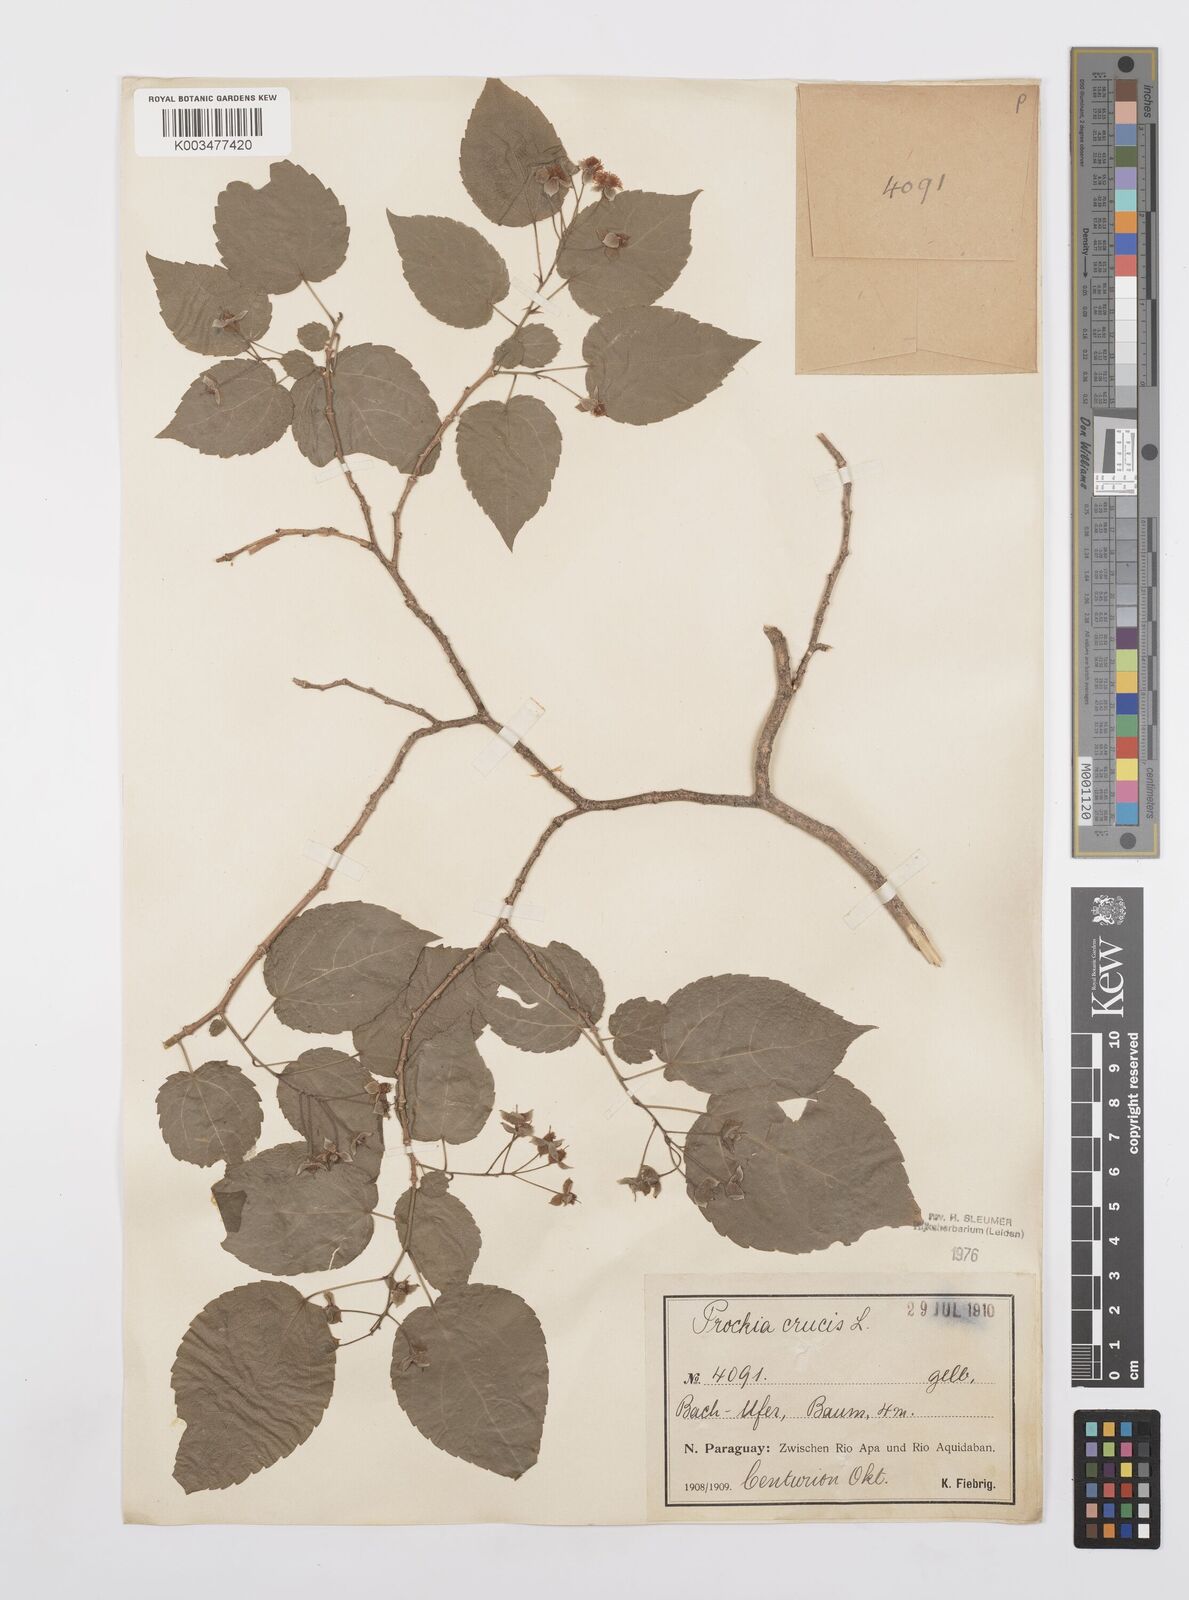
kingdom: Plantae
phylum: Tracheophyta
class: Magnoliopsida
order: Malpighiales
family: Salicaceae
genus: Prockia
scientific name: Prockia crucis
